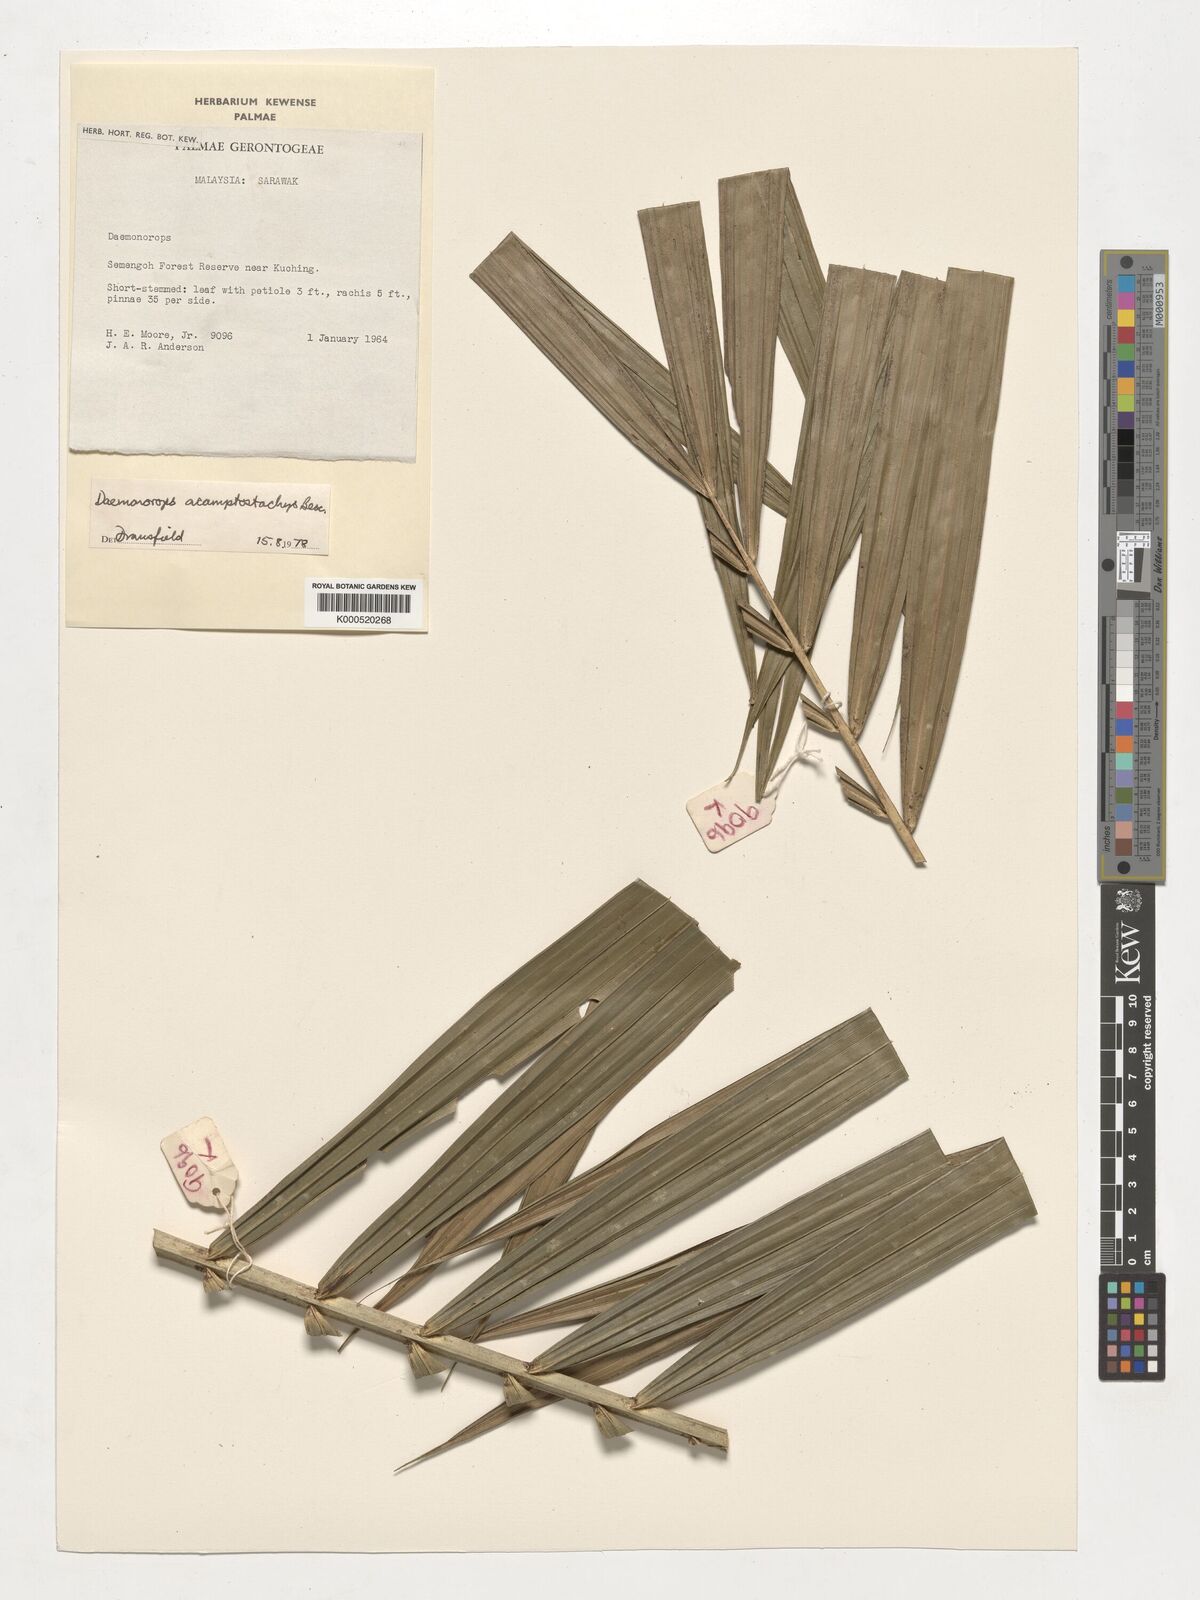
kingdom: Plantae
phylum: Tracheophyta
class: Liliopsida
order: Arecales
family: Arecaceae
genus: Calamus
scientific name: Calamus acamptostachys
